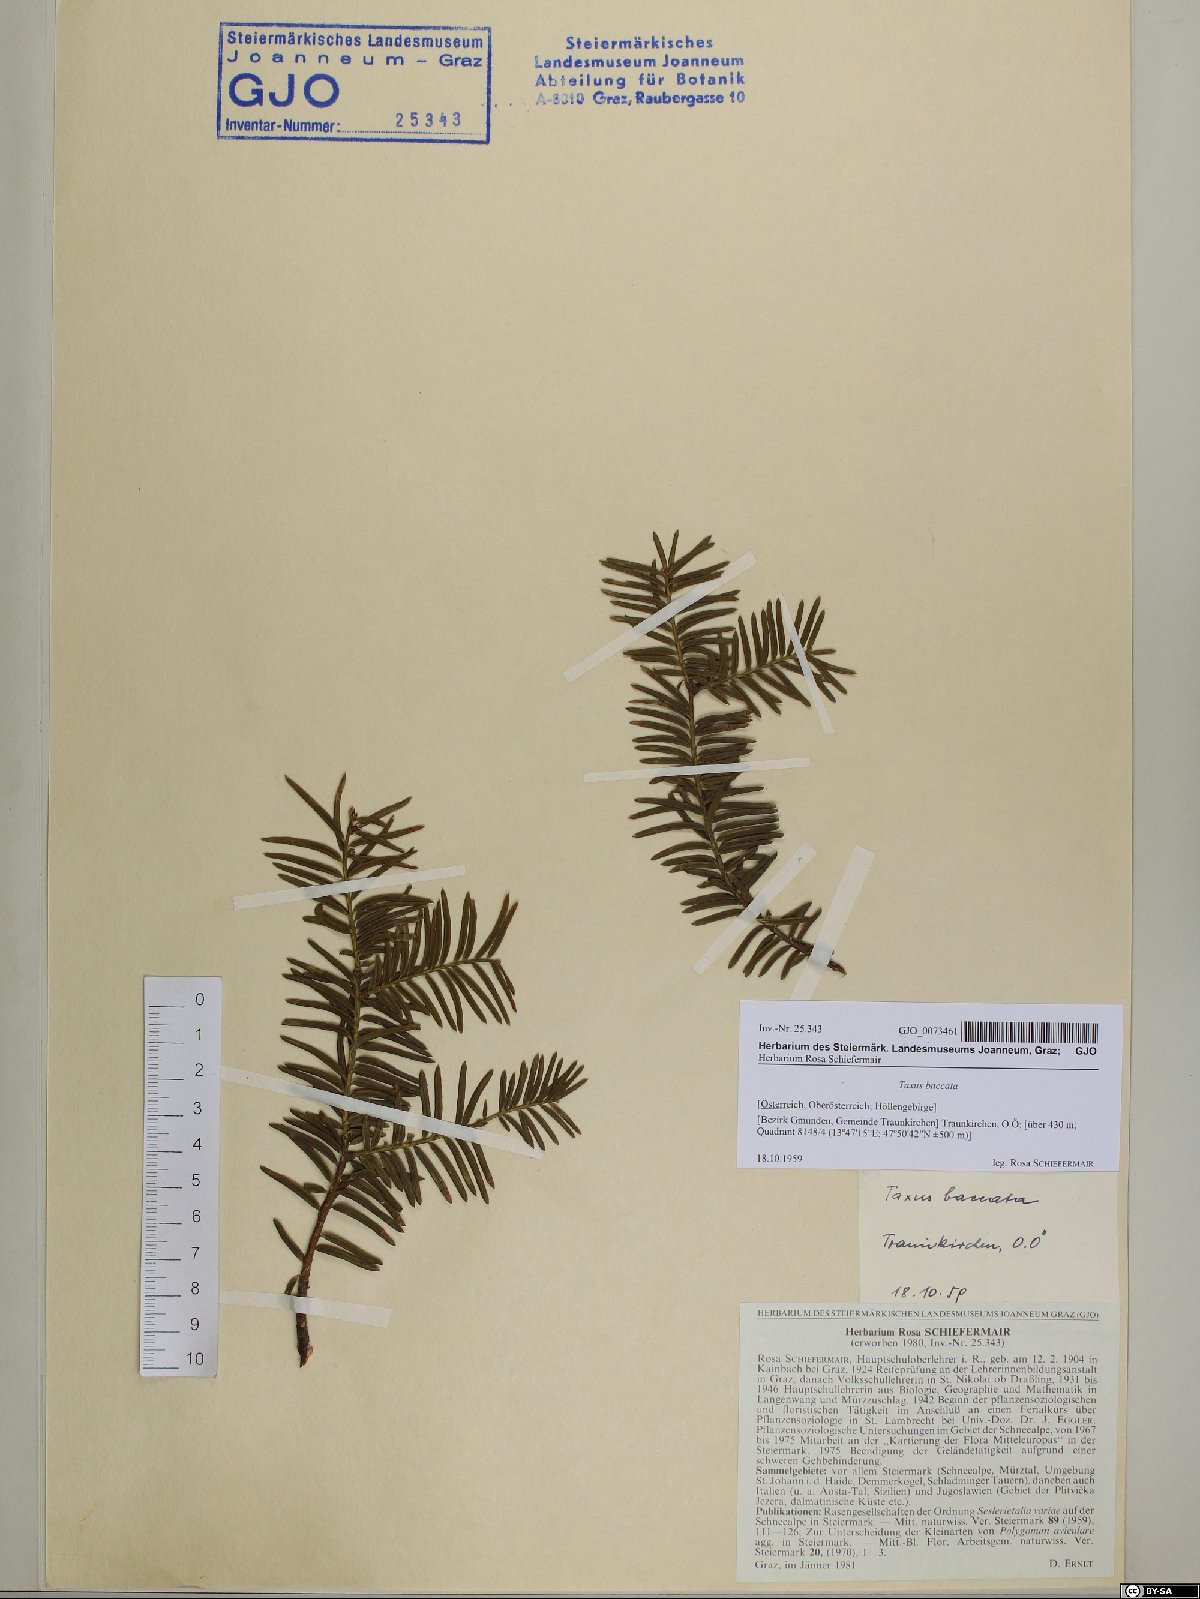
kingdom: Plantae
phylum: Tracheophyta
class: Pinopsida
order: Pinales
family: Taxaceae
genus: Taxus
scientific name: Taxus baccata
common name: Yew
